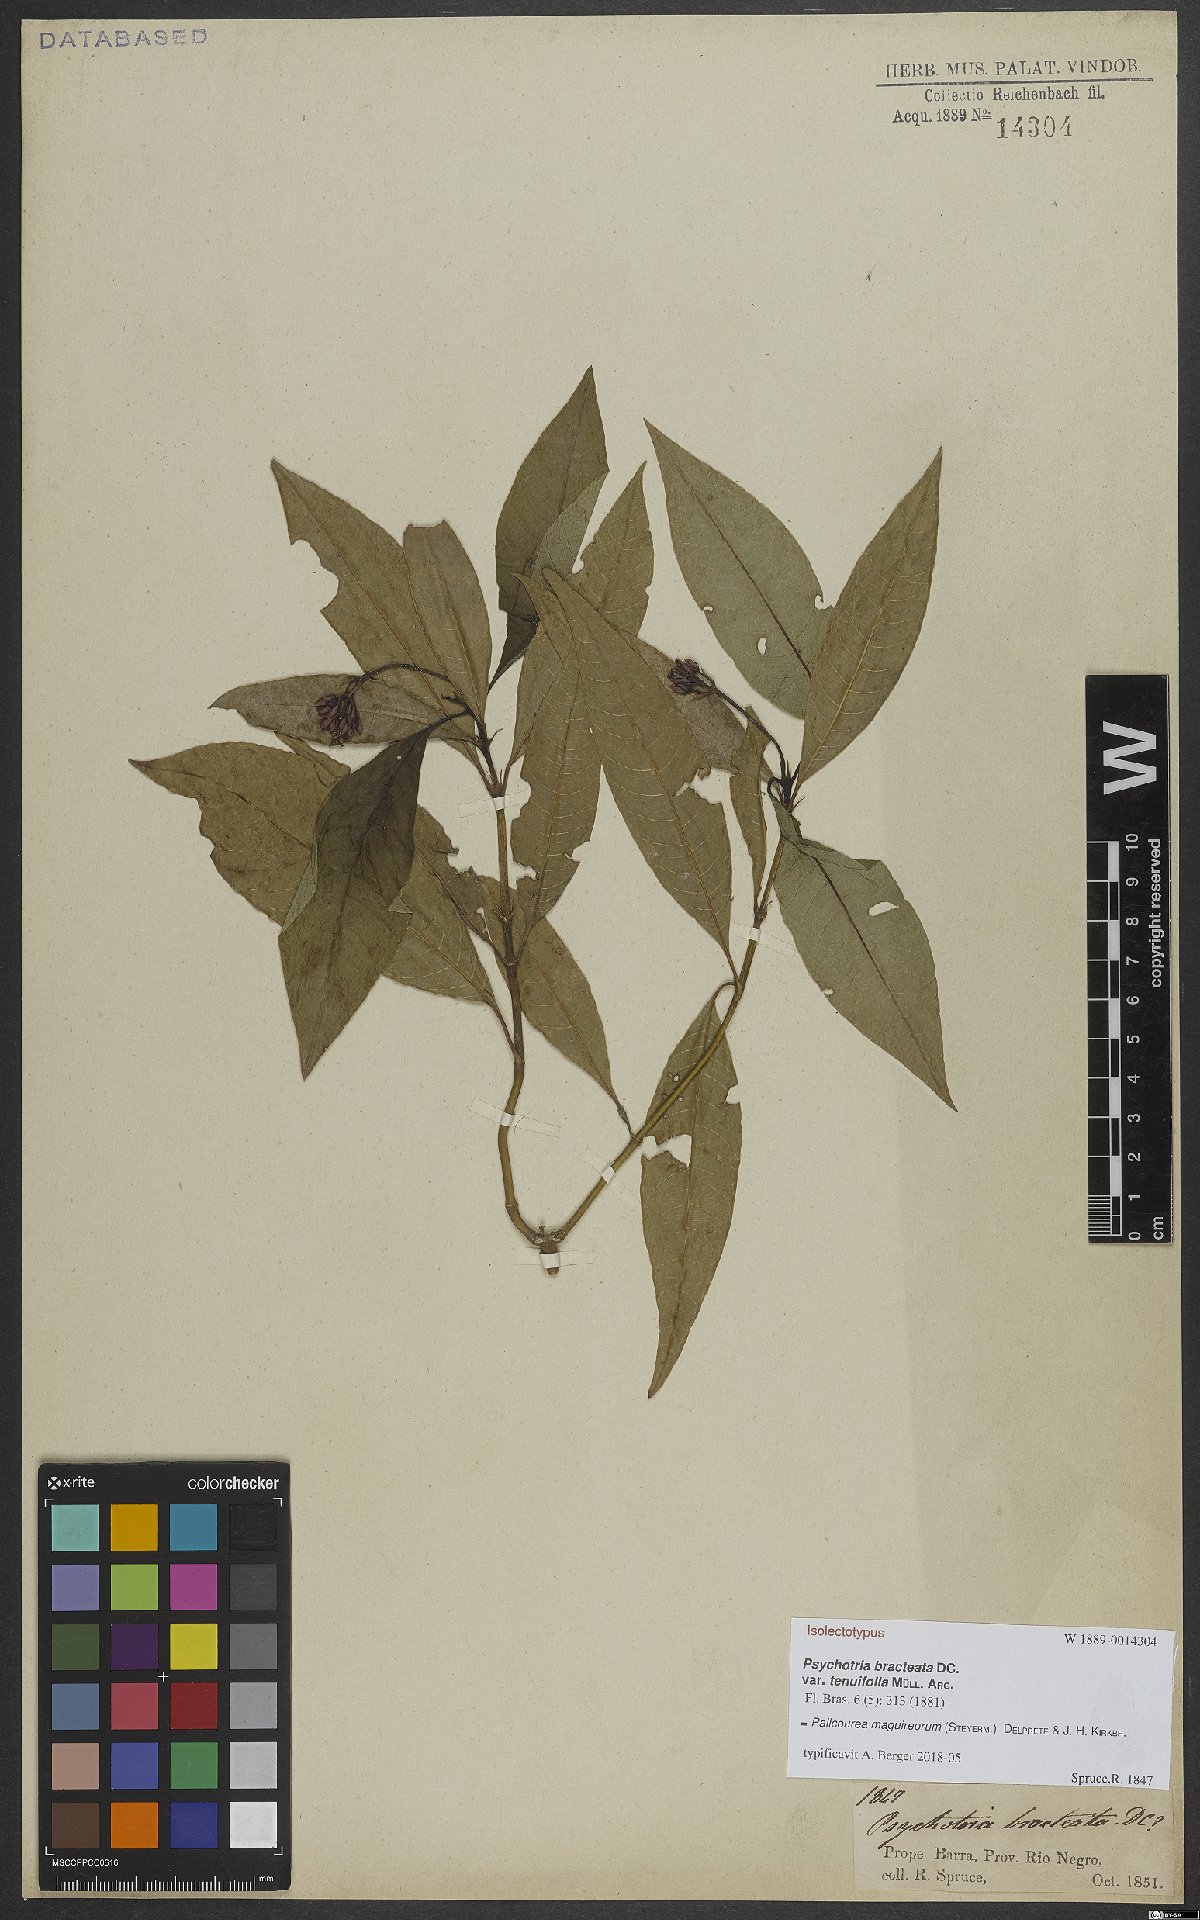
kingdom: Plantae
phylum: Tracheophyta
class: Magnoliopsida
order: Gentianales
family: Rubiaceae
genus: Palicourea
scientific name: Palicourea maguireorum
